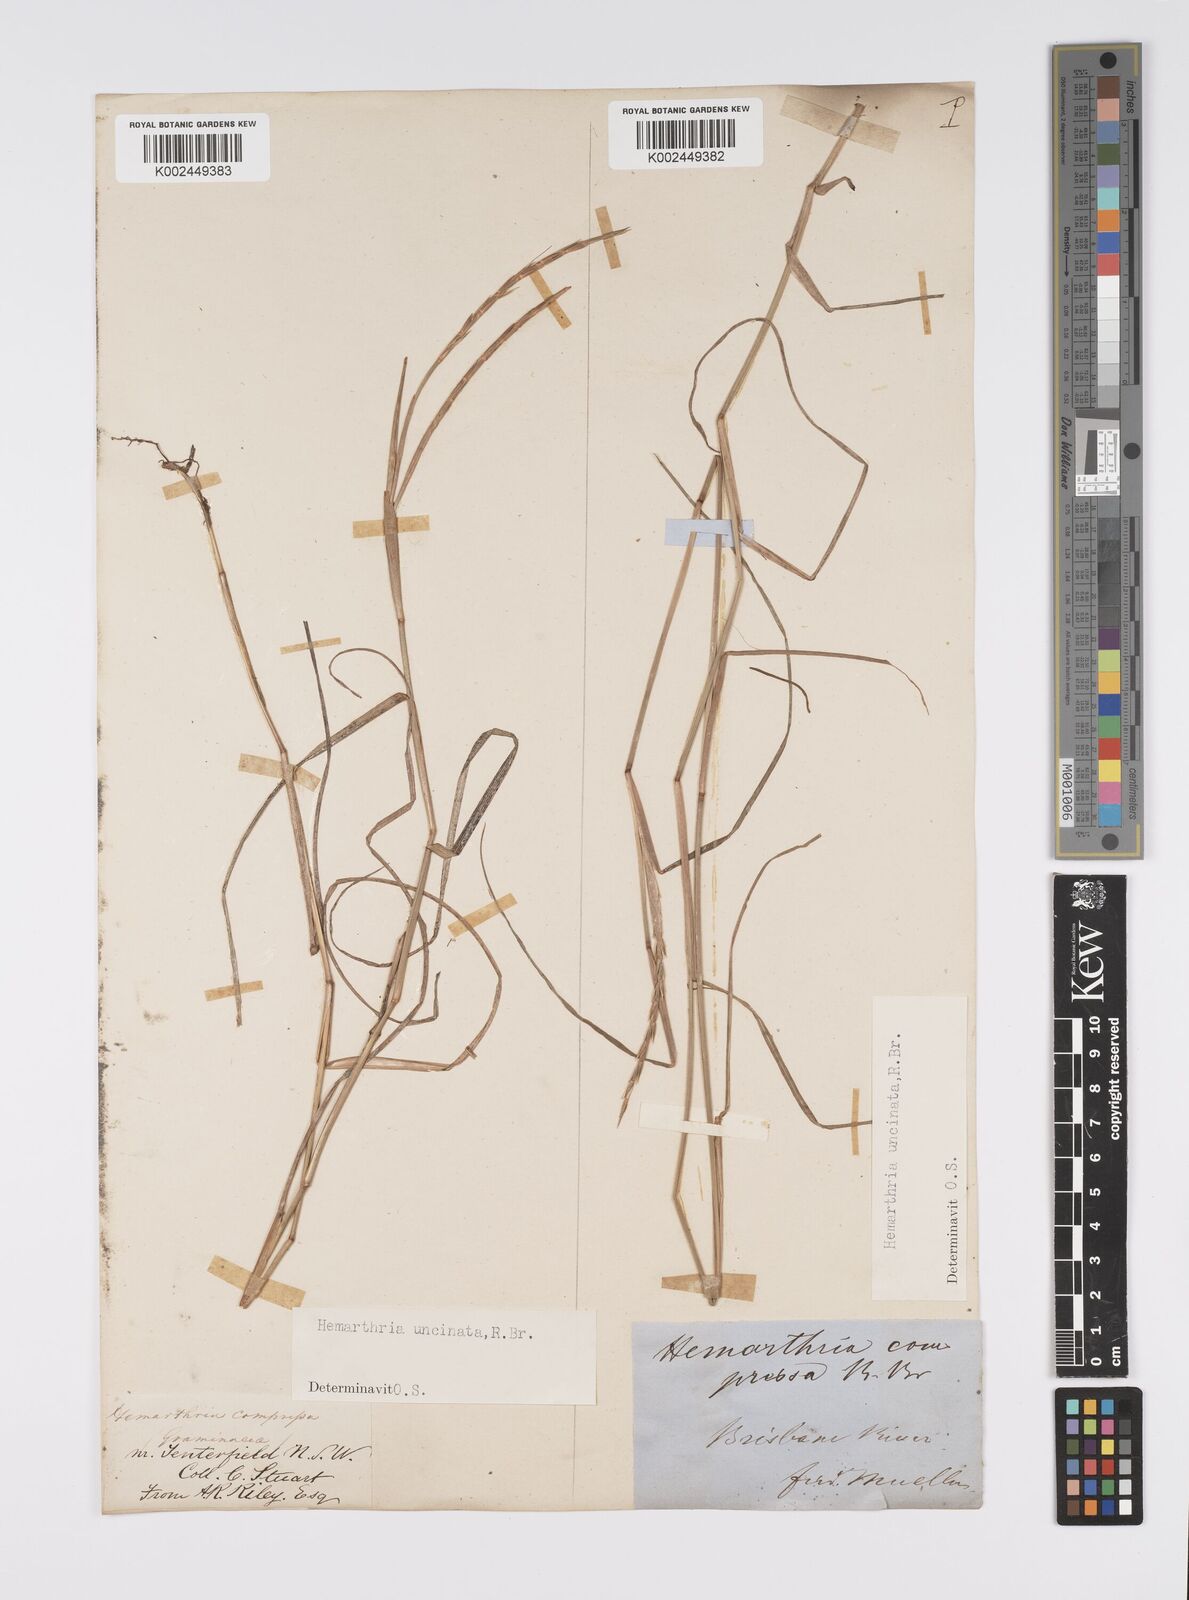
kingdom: Plantae
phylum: Tracheophyta
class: Liliopsida
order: Poales
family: Poaceae
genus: Hemarthria
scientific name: Hemarthria uncinata
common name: Matgrass
